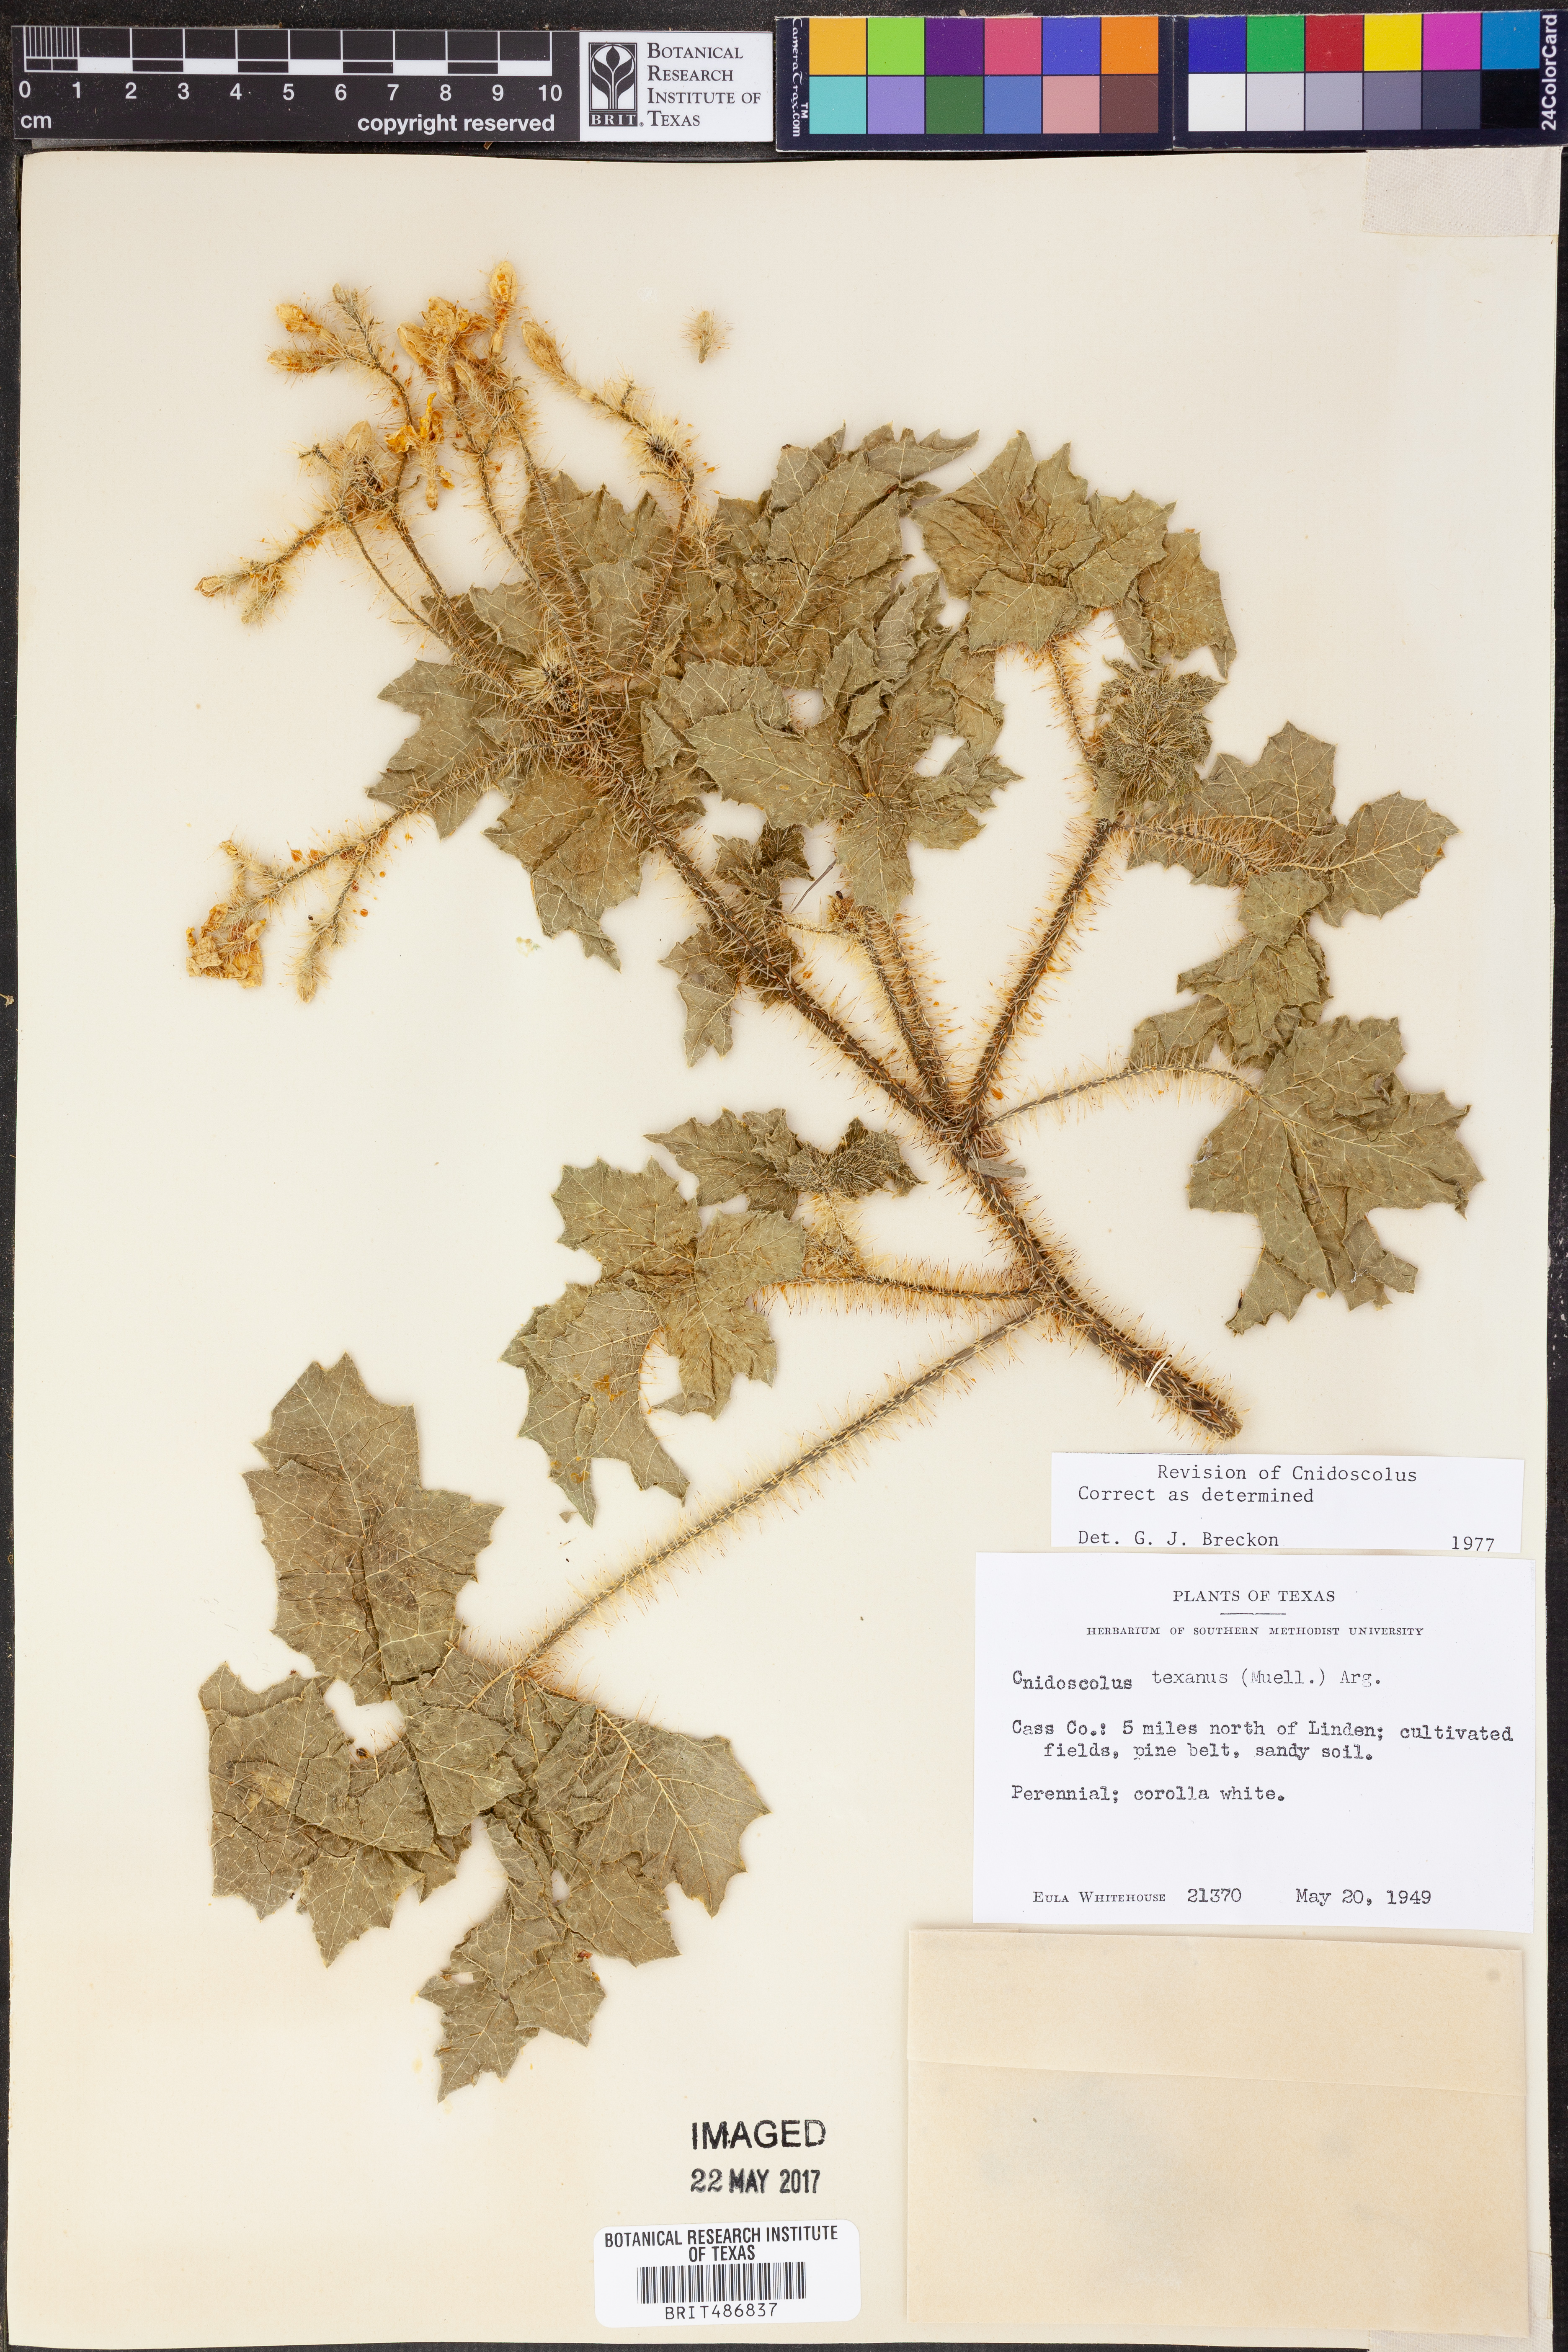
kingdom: Plantae
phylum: Tracheophyta
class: Magnoliopsida
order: Malpighiales
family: Euphorbiaceae
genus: Cnidoscolus
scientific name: Cnidoscolus texanus
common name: Texas bull-nettle
